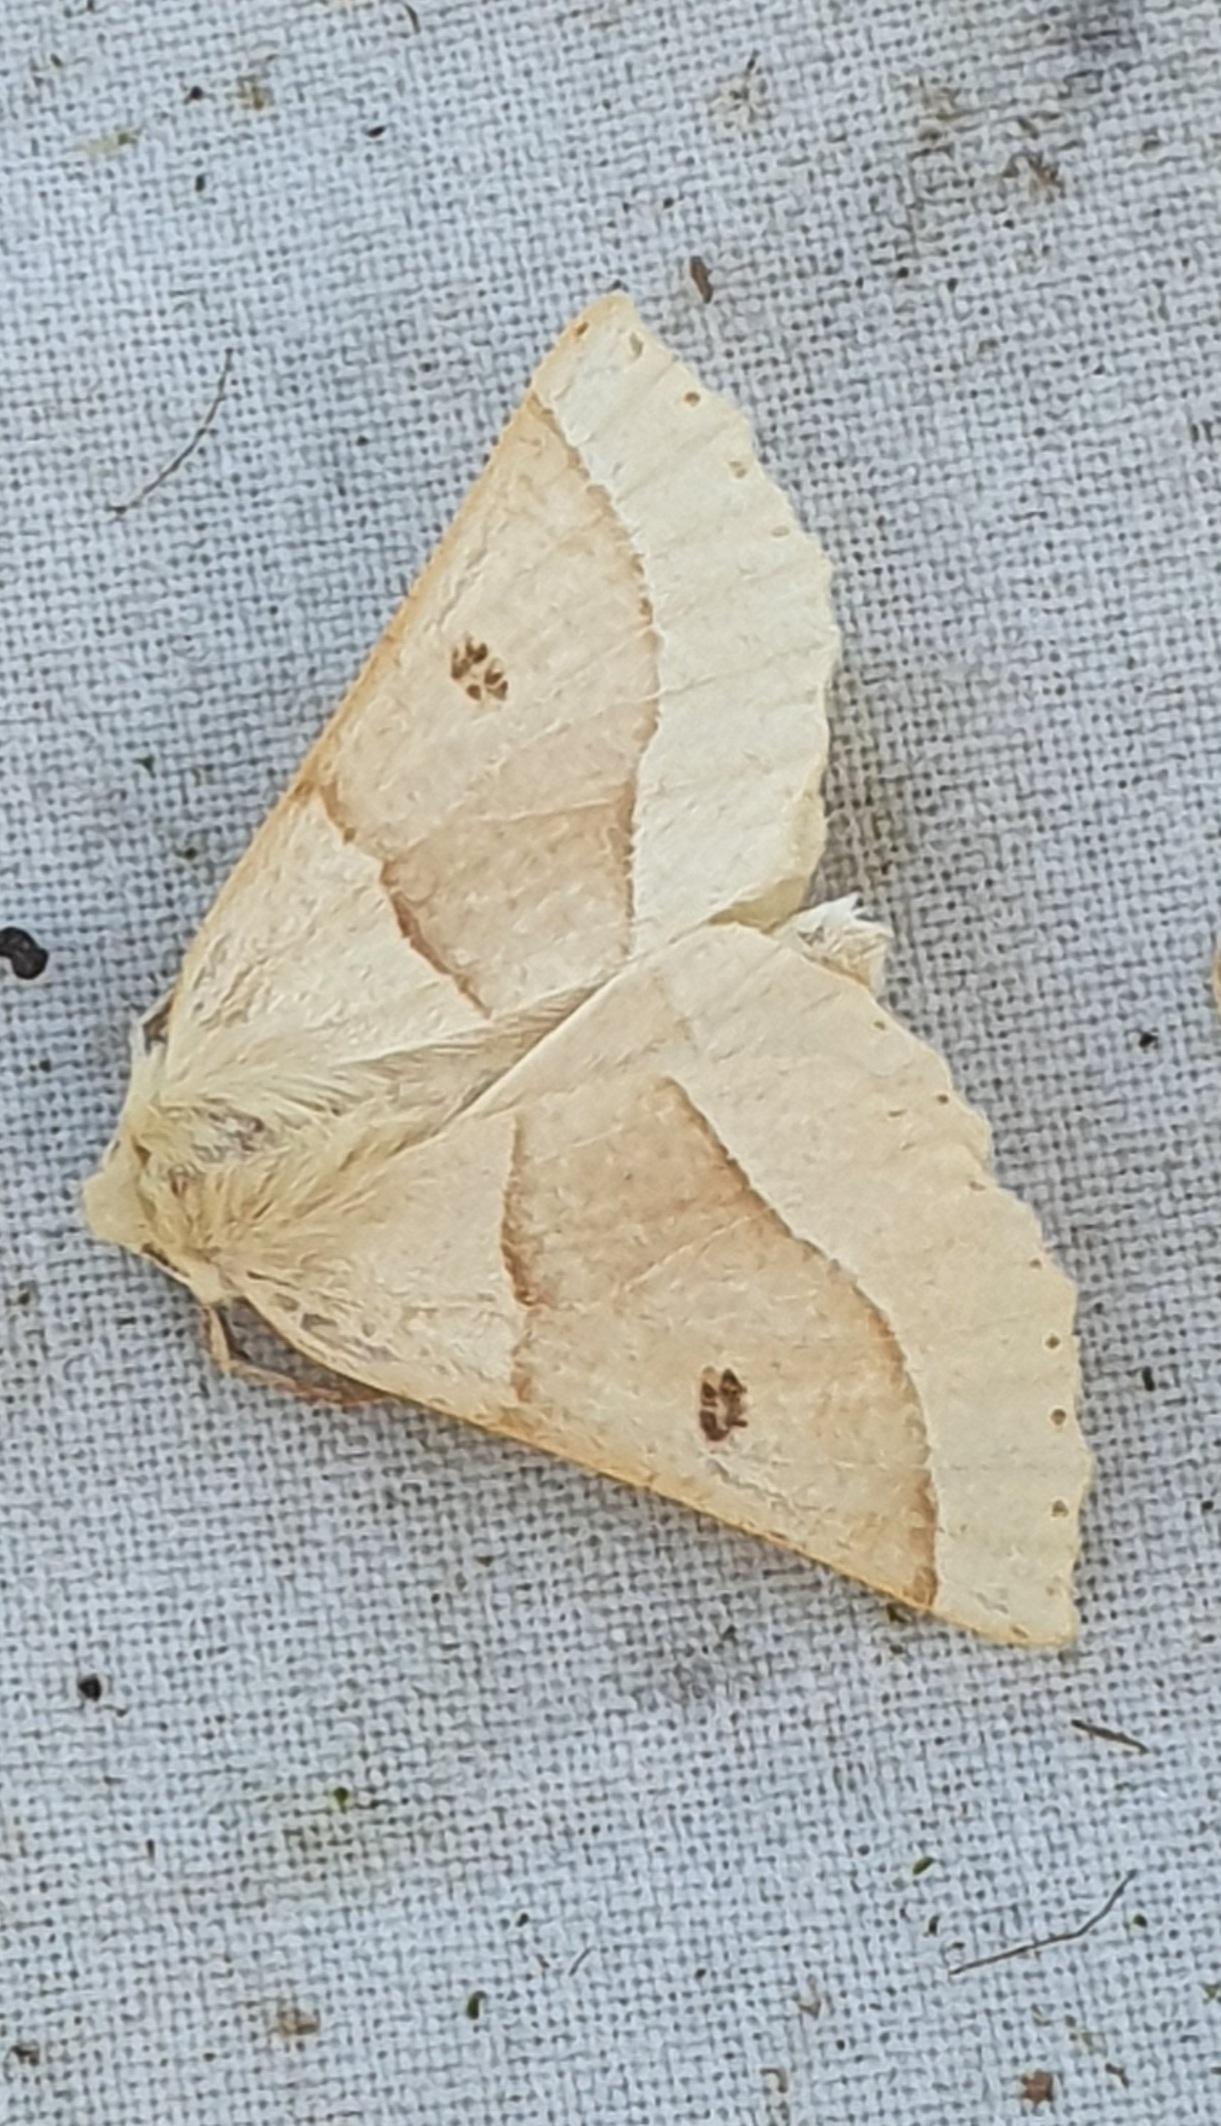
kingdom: Animalia
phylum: Arthropoda
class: Insecta
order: Lepidoptera
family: Geometridae
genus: Crocallis
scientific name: Crocallis elinguaria
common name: Okkergul rovmåler
